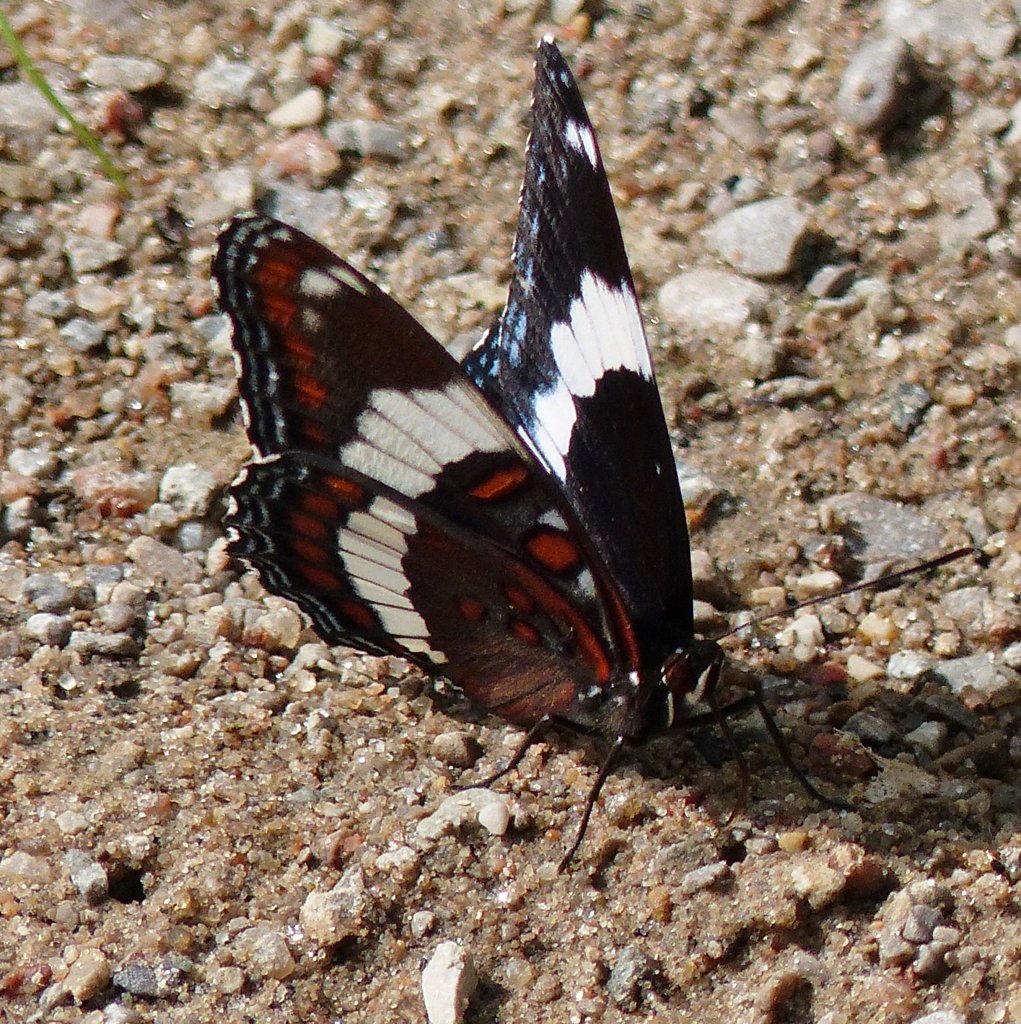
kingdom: Animalia
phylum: Arthropoda
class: Insecta
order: Lepidoptera
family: Nymphalidae
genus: Limenitis
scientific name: Limenitis arthemis
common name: Red-spotted Admiral
